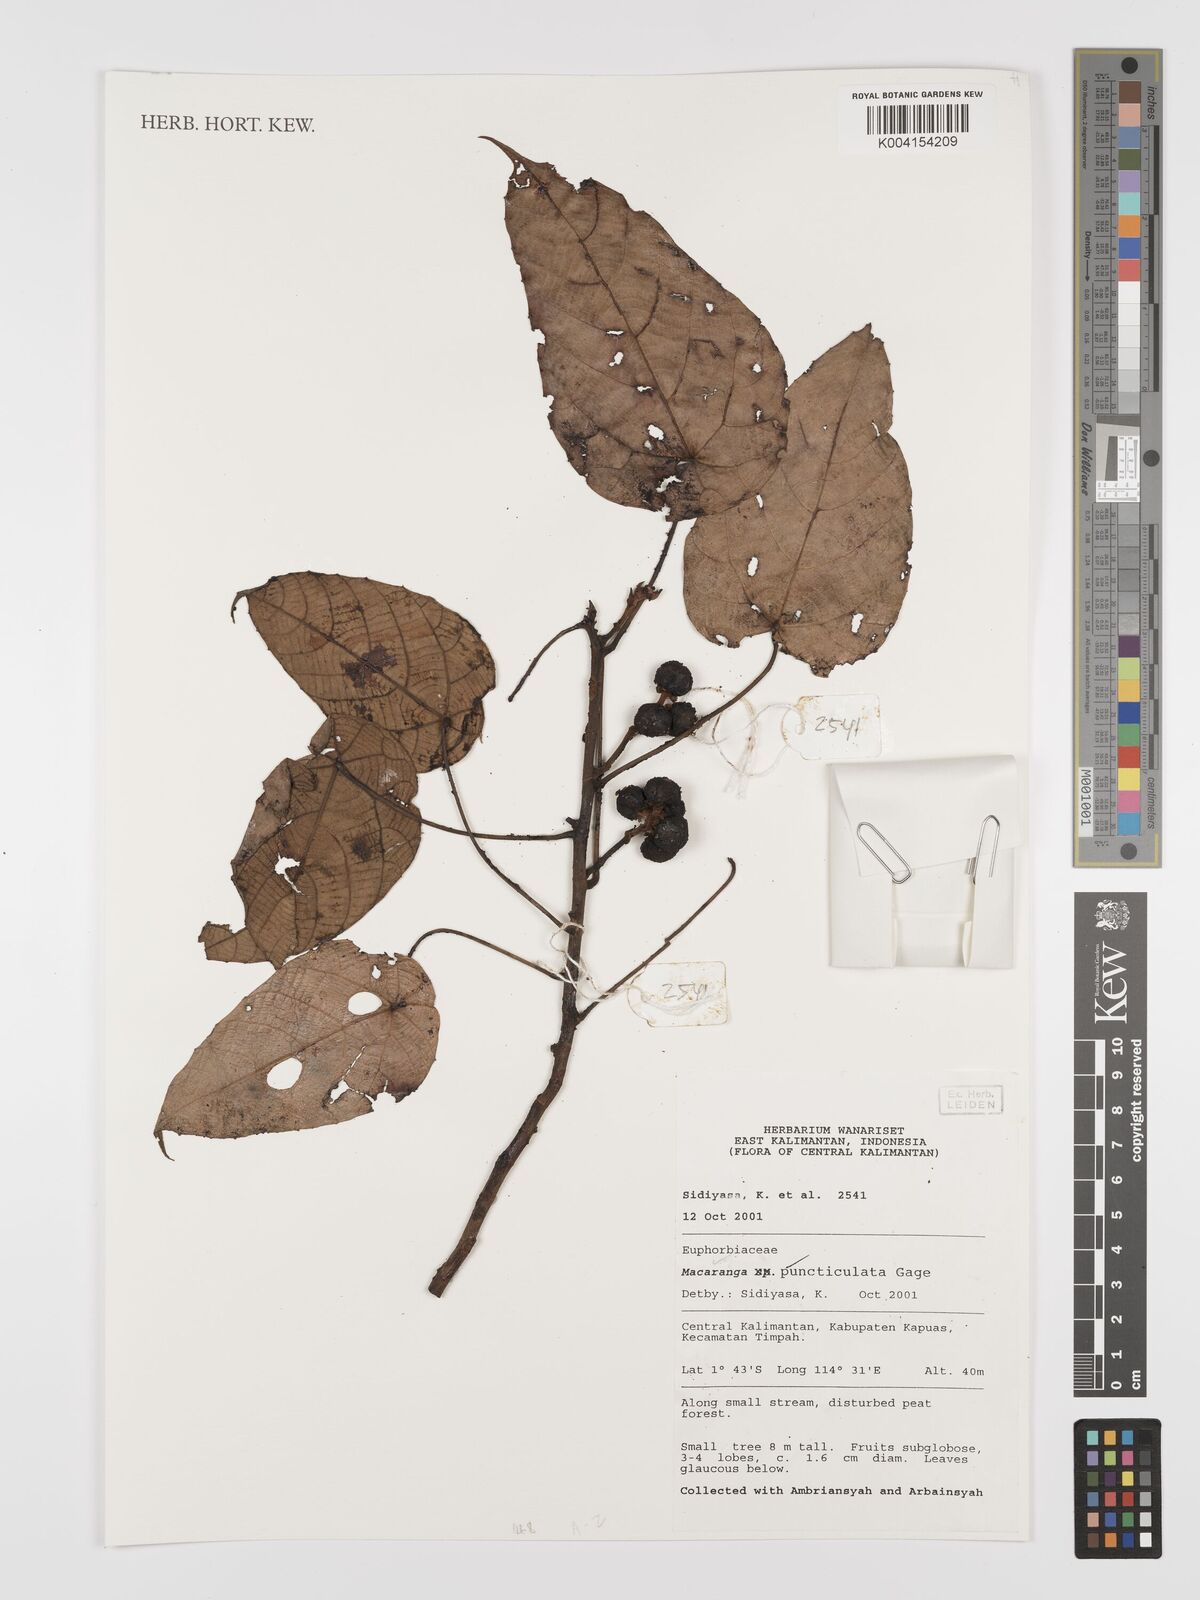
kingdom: Plantae
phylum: Tracheophyta
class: Magnoliopsida
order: Malpighiales
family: Euphorbiaceae
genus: Macaranga
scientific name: Macaranga puncticulata
